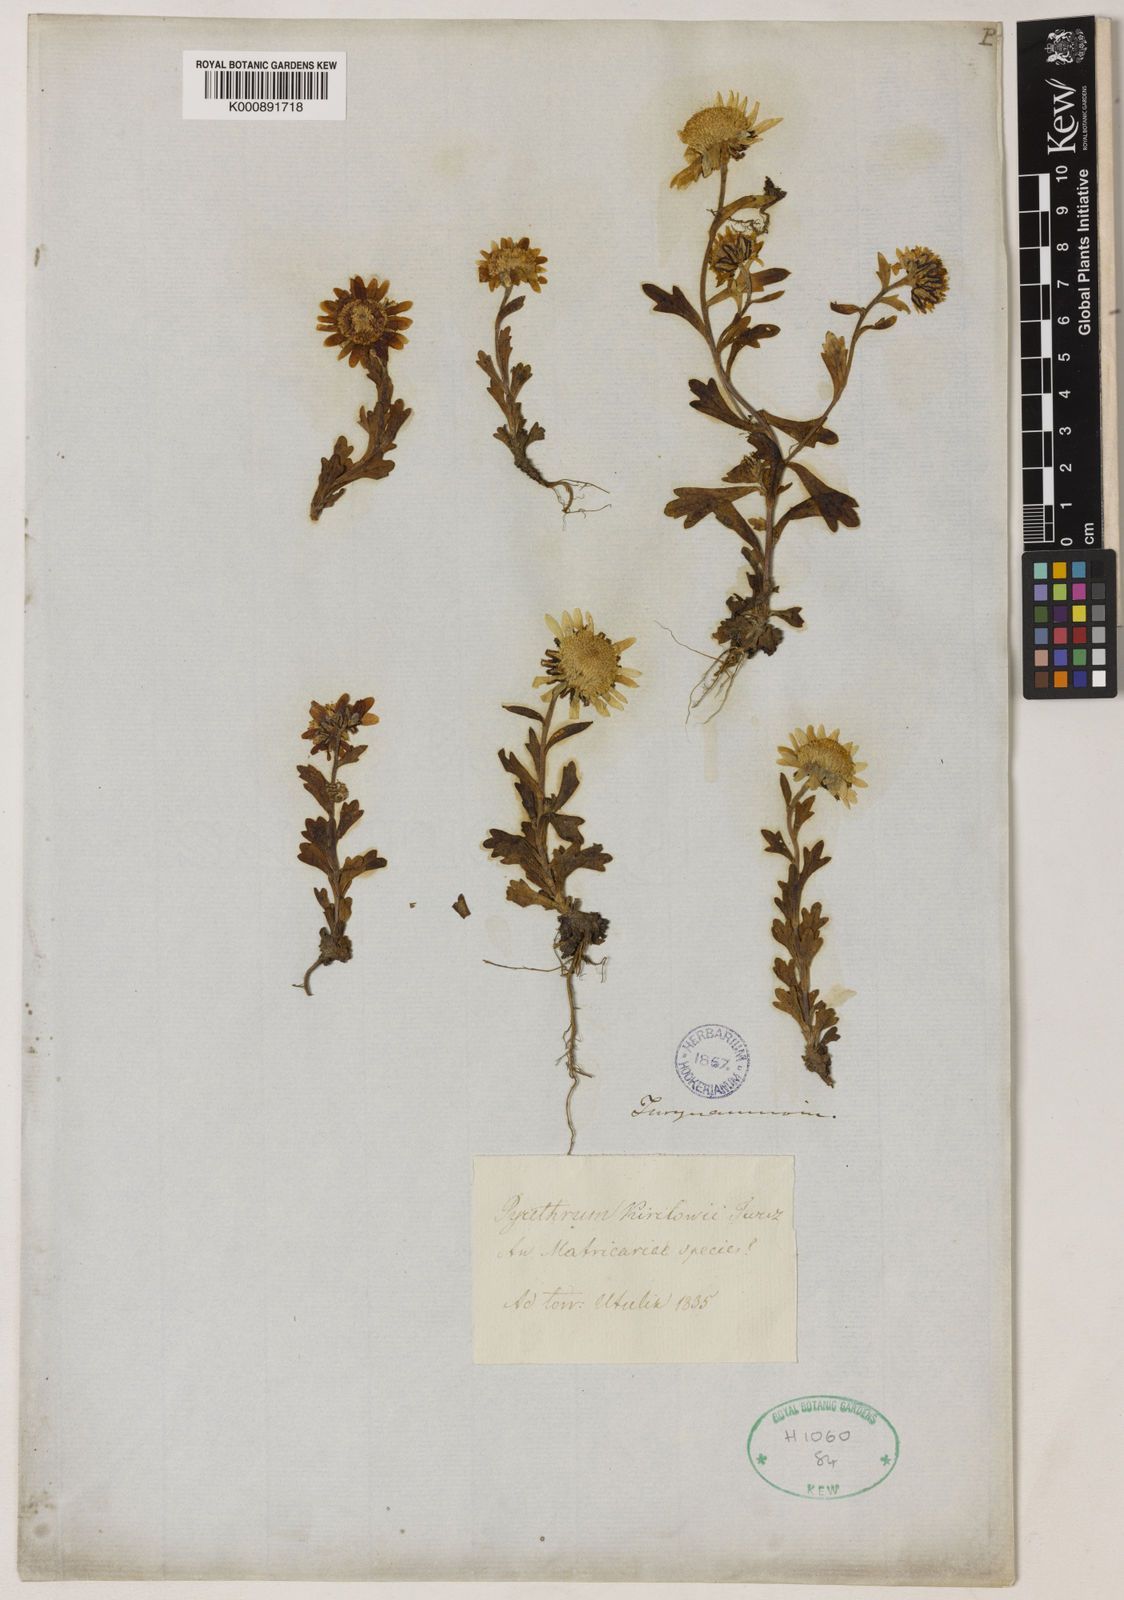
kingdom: Plantae
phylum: Tracheophyta
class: Magnoliopsida
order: Asterales
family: Asteraceae
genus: Tridactylina
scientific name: Tridactylina kirilowii
